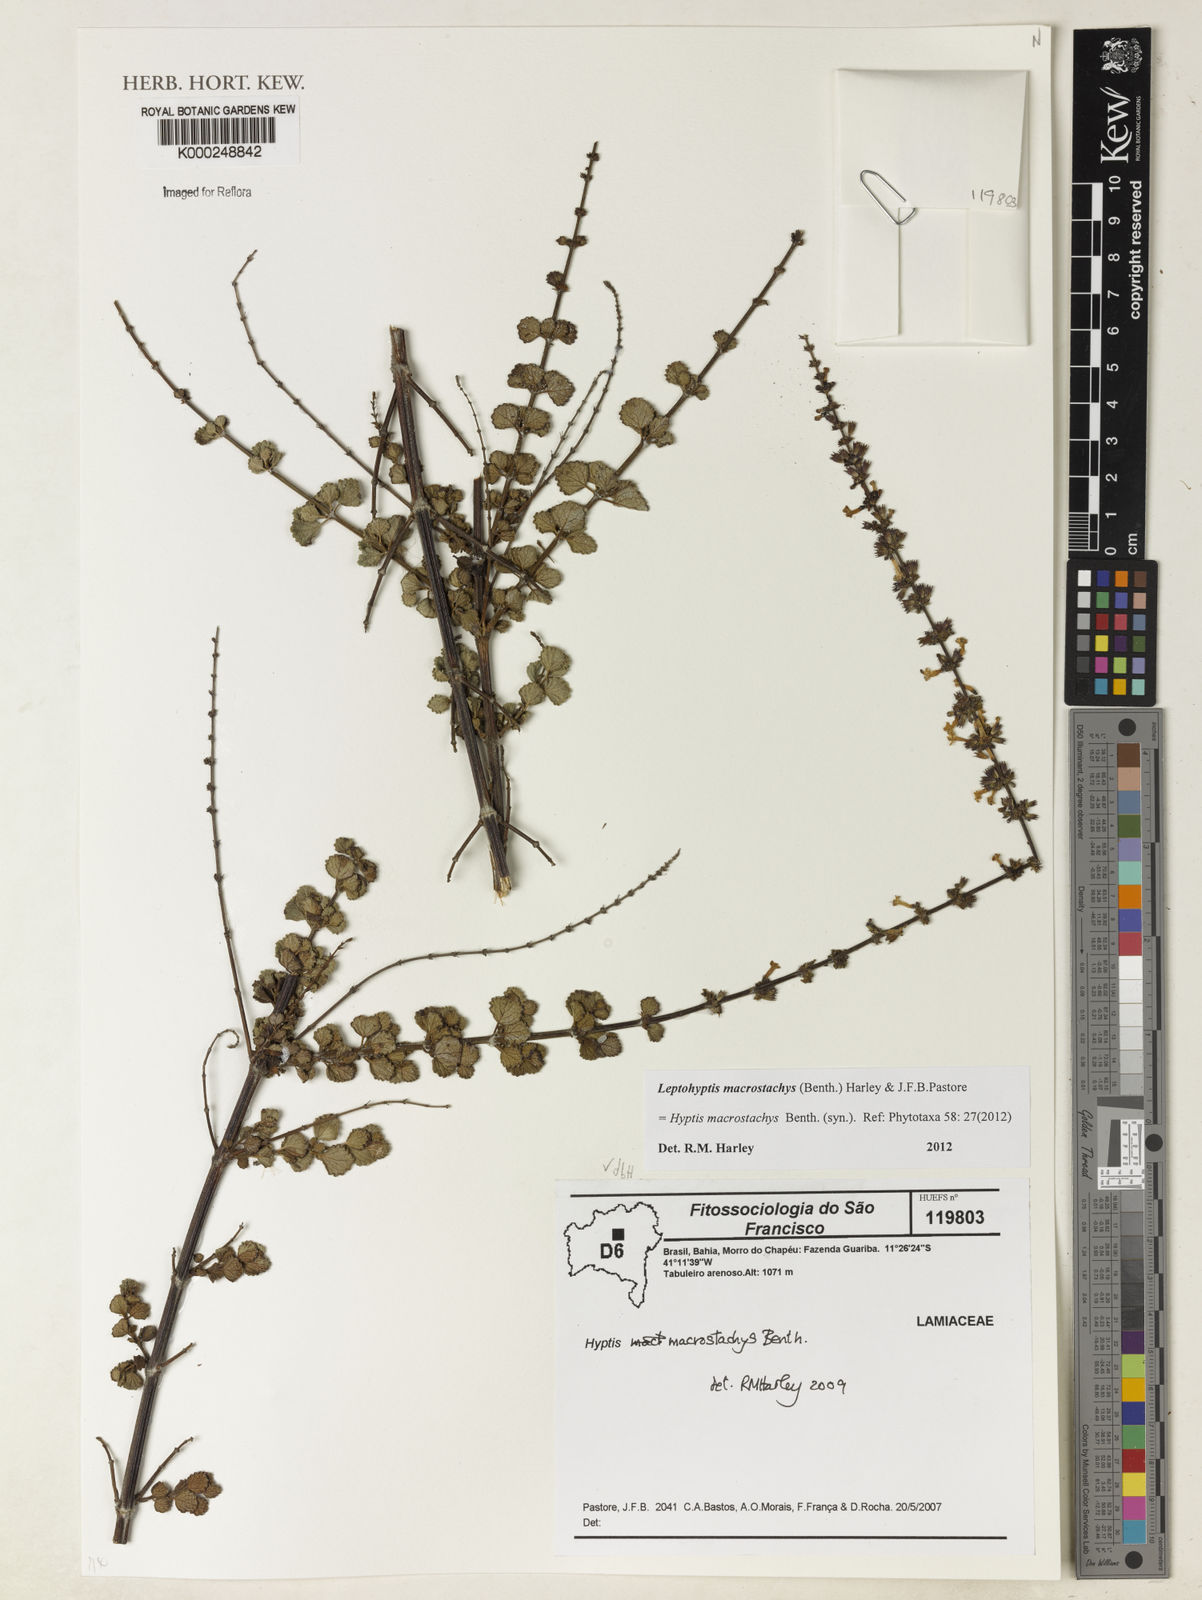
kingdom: Plantae
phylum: Tracheophyta
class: Magnoliopsida
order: Lamiales
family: Lamiaceae
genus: Leptohyptis
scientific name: Leptohyptis macrostachys
